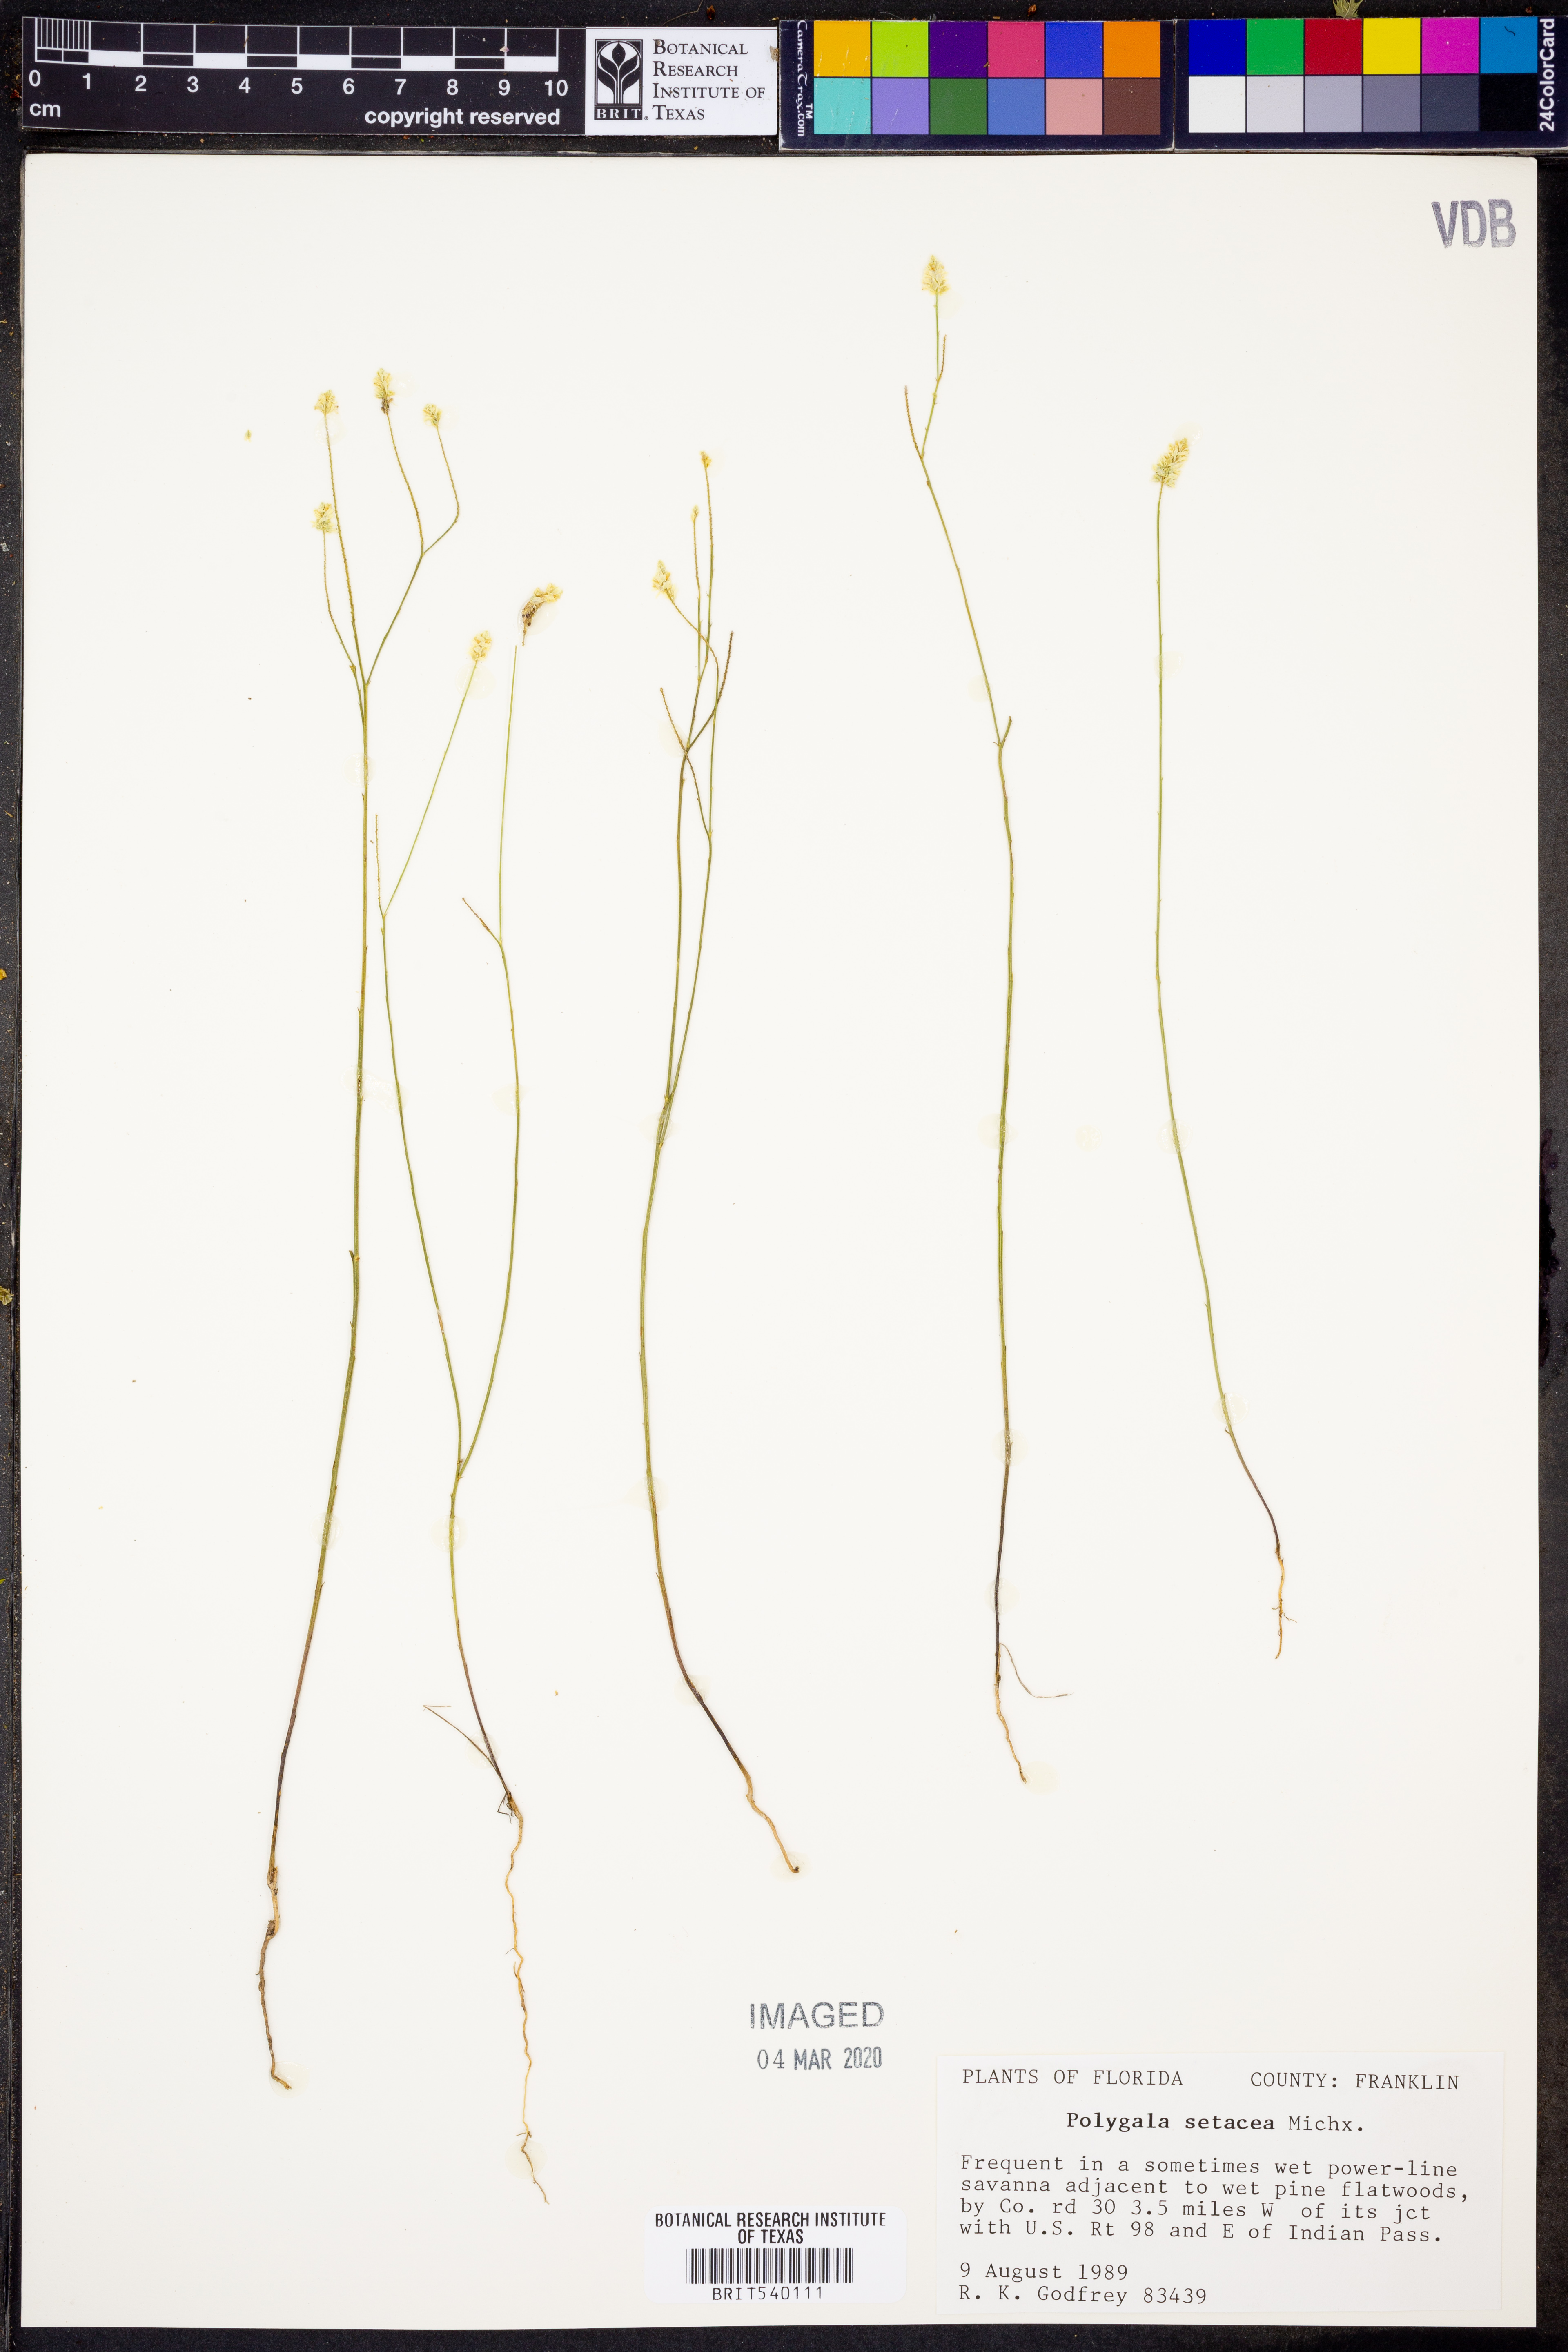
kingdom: Plantae
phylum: Tracheophyta
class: Magnoliopsida
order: Fabales
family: Polygalaceae
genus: Polygala
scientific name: Polygala setacea
